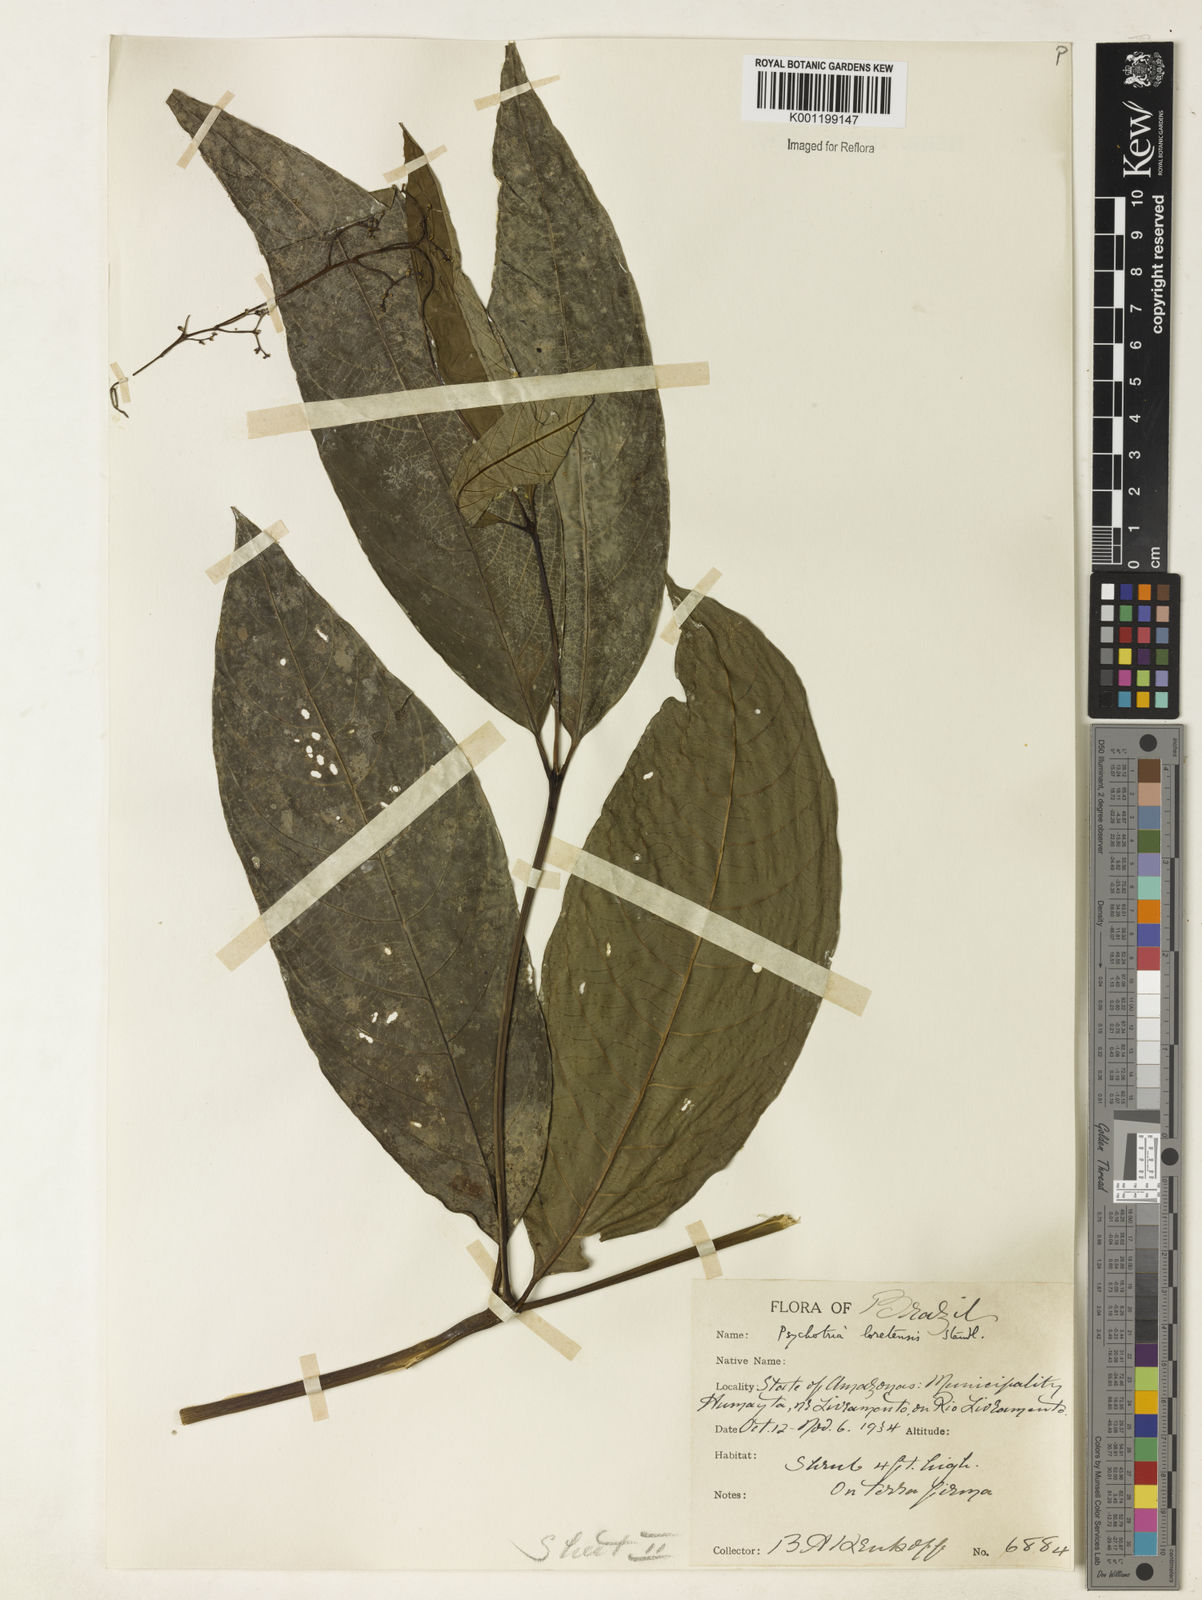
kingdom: Plantae
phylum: Tracheophyta
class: Magnoliopsida
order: Gentianales
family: Rubiaceae
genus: Palicourea
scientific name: Palicourea longicuspis
